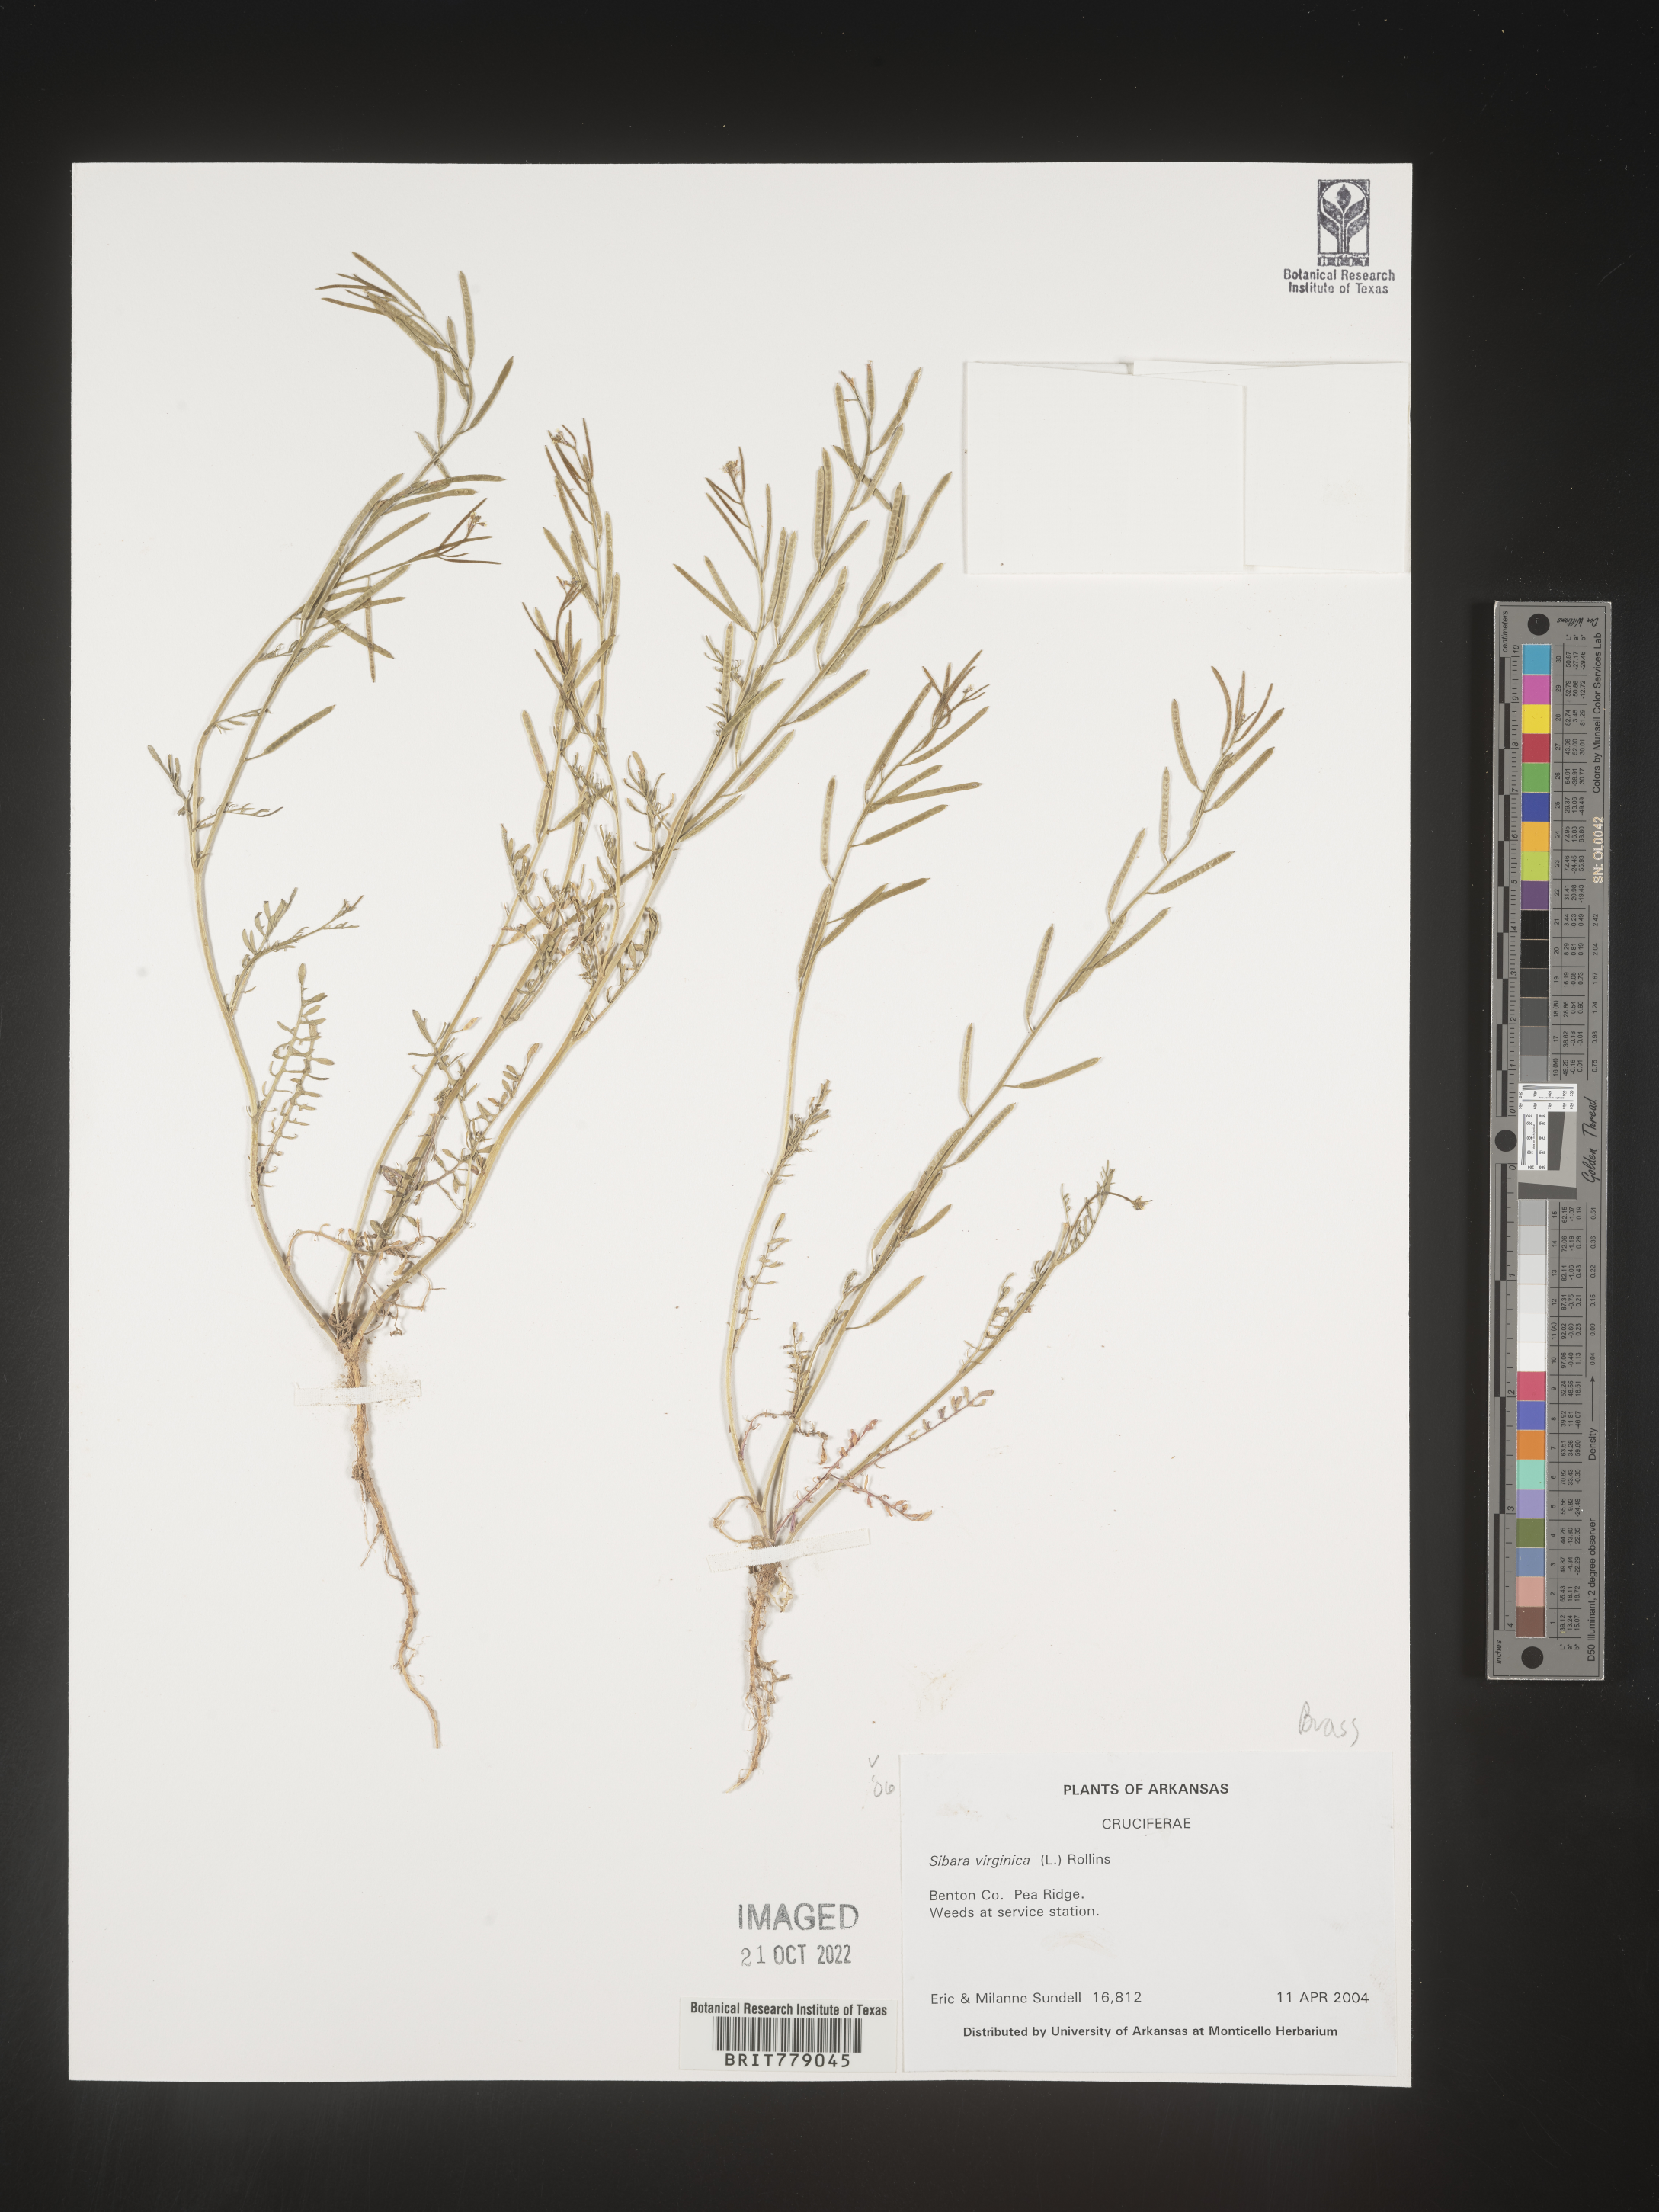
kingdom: Plantae
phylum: Tracheophyta
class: Magnoliopsida
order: Brassicales
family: Brassicaceae
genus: Sibara
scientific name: Sibara
